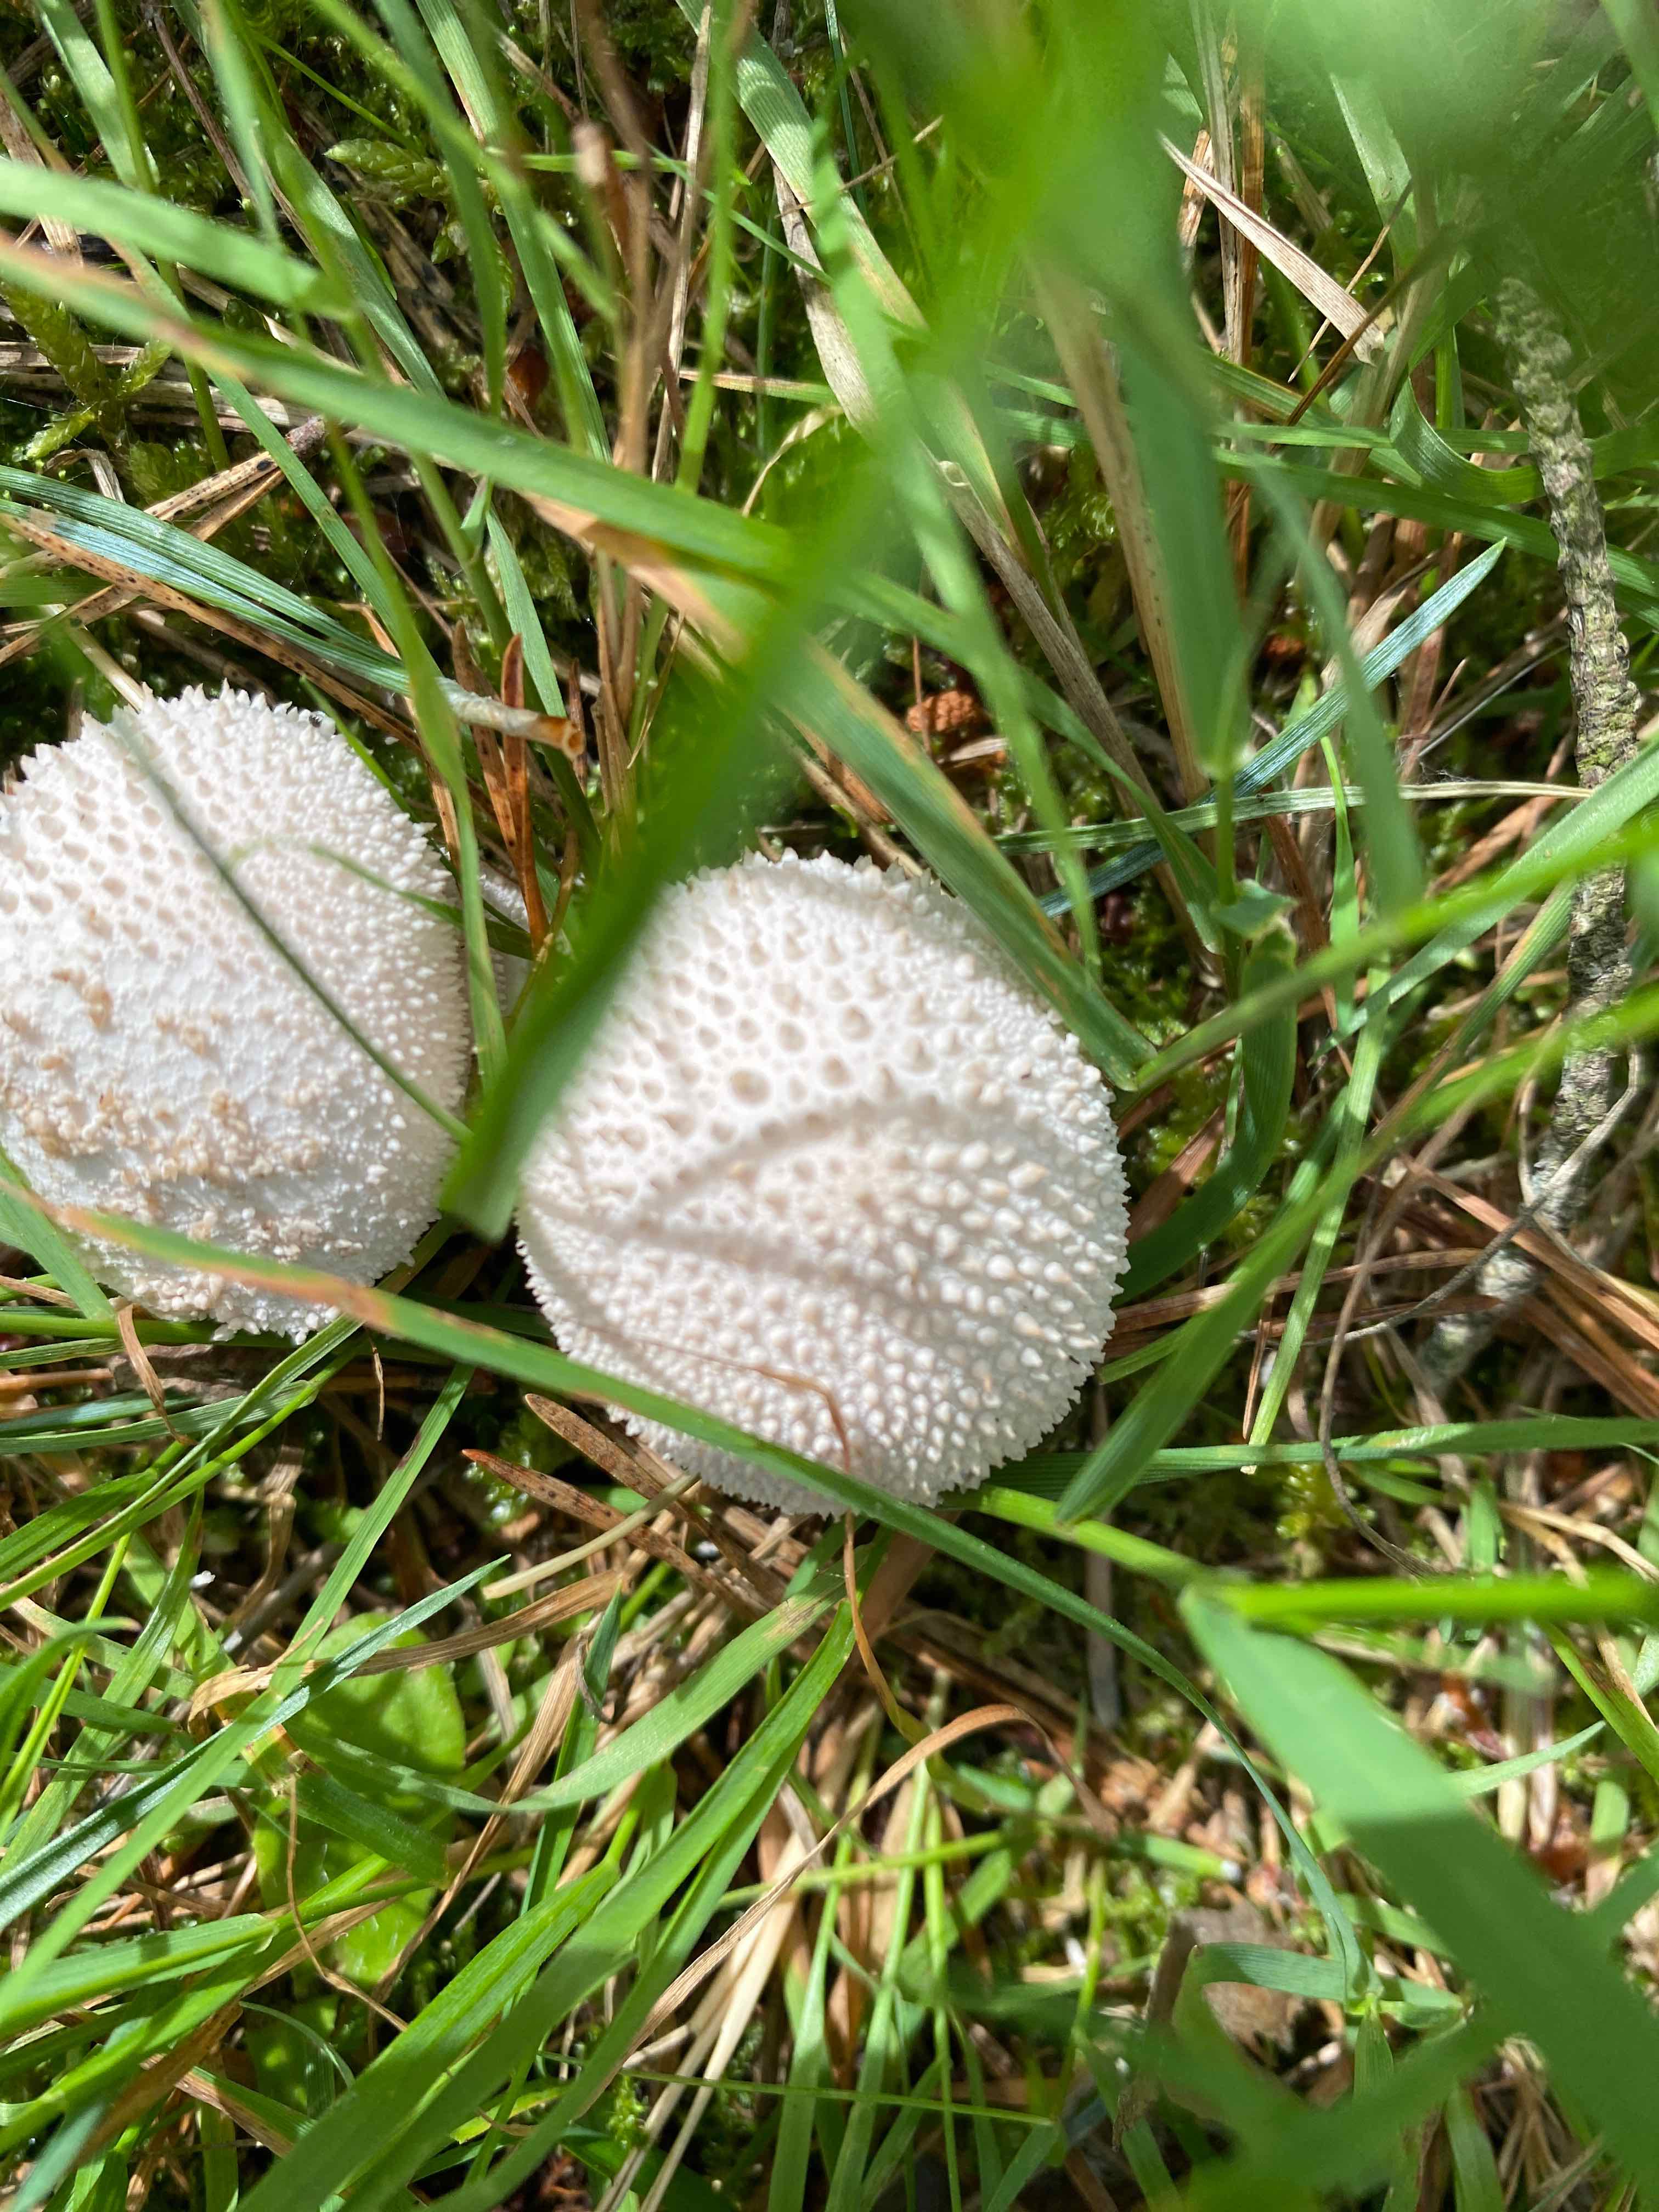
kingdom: Fungi
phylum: Basidiomycota
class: Agaricomycetes
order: Agaricales
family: Lycoperdaceae
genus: Lycoperdon
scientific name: Lycoperdon perlatum
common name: krystal-støvbold
